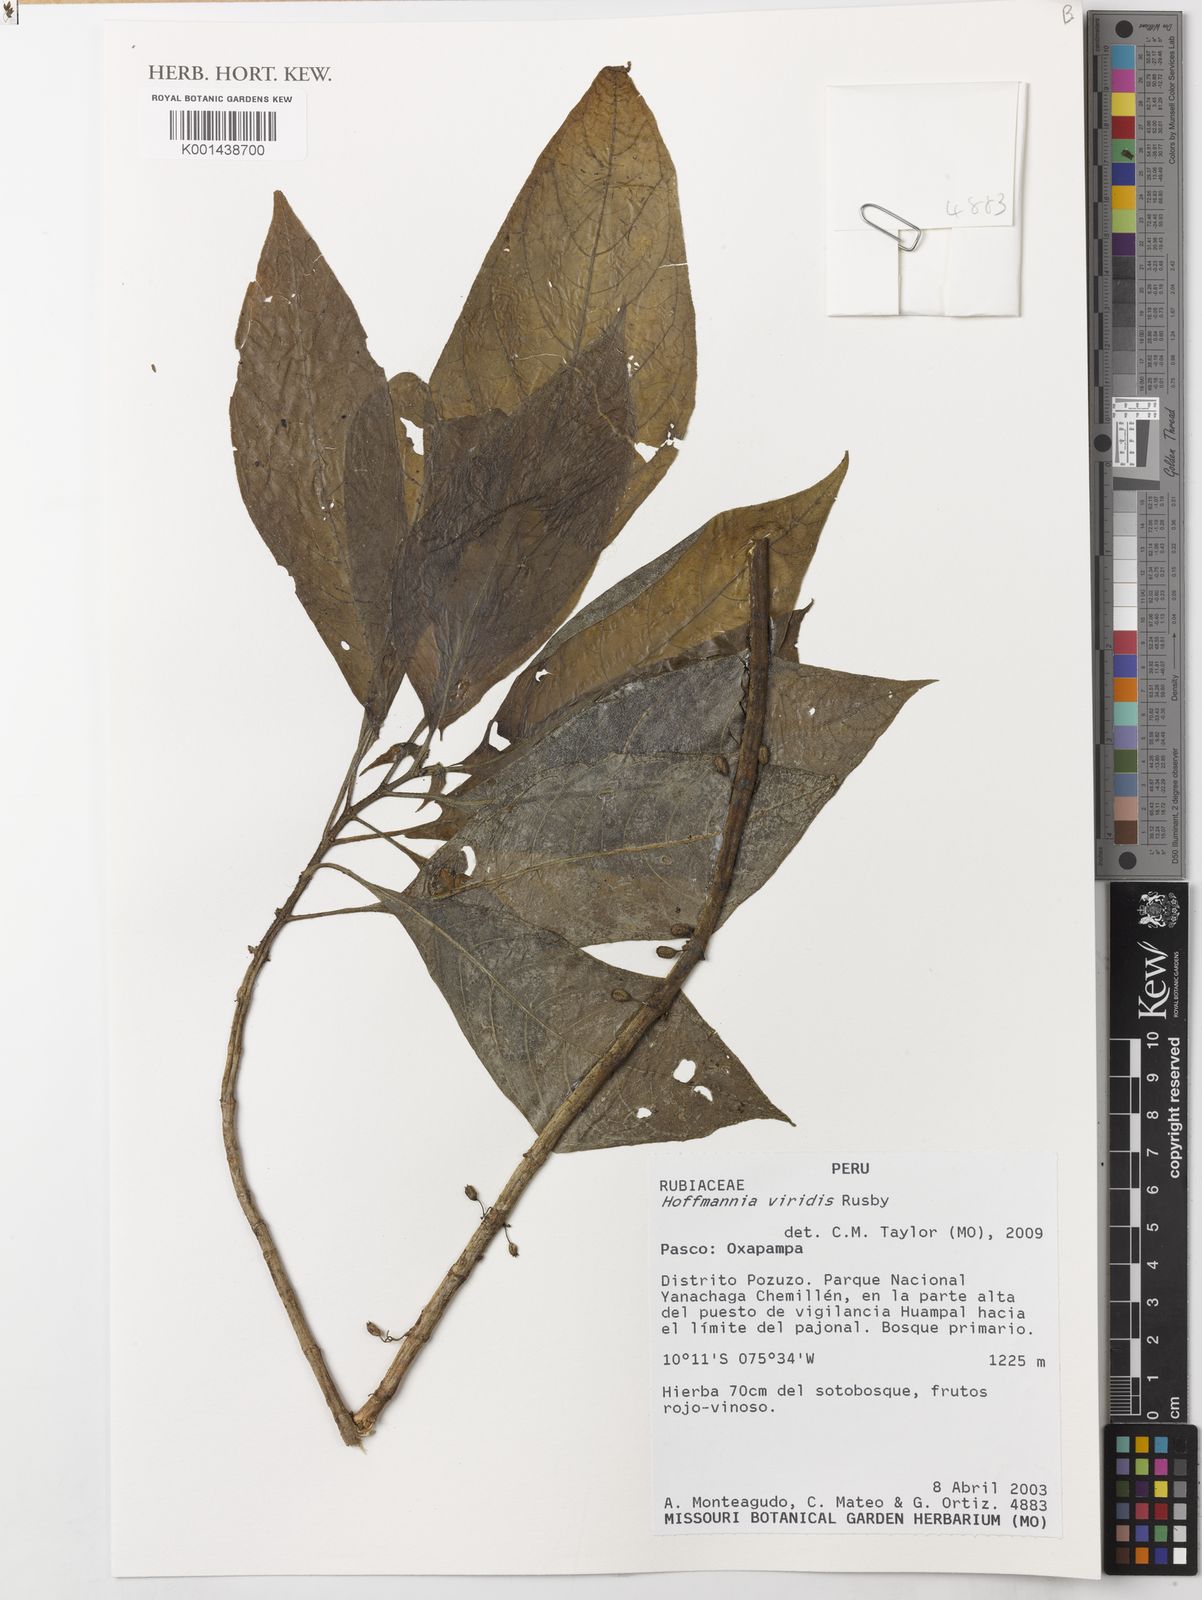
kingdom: Plantae
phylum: Tracheophyta
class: Magnoliopsida
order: Gentianales
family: Rubiaceae
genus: Hoffmannia
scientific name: Hoffmannia viridis
